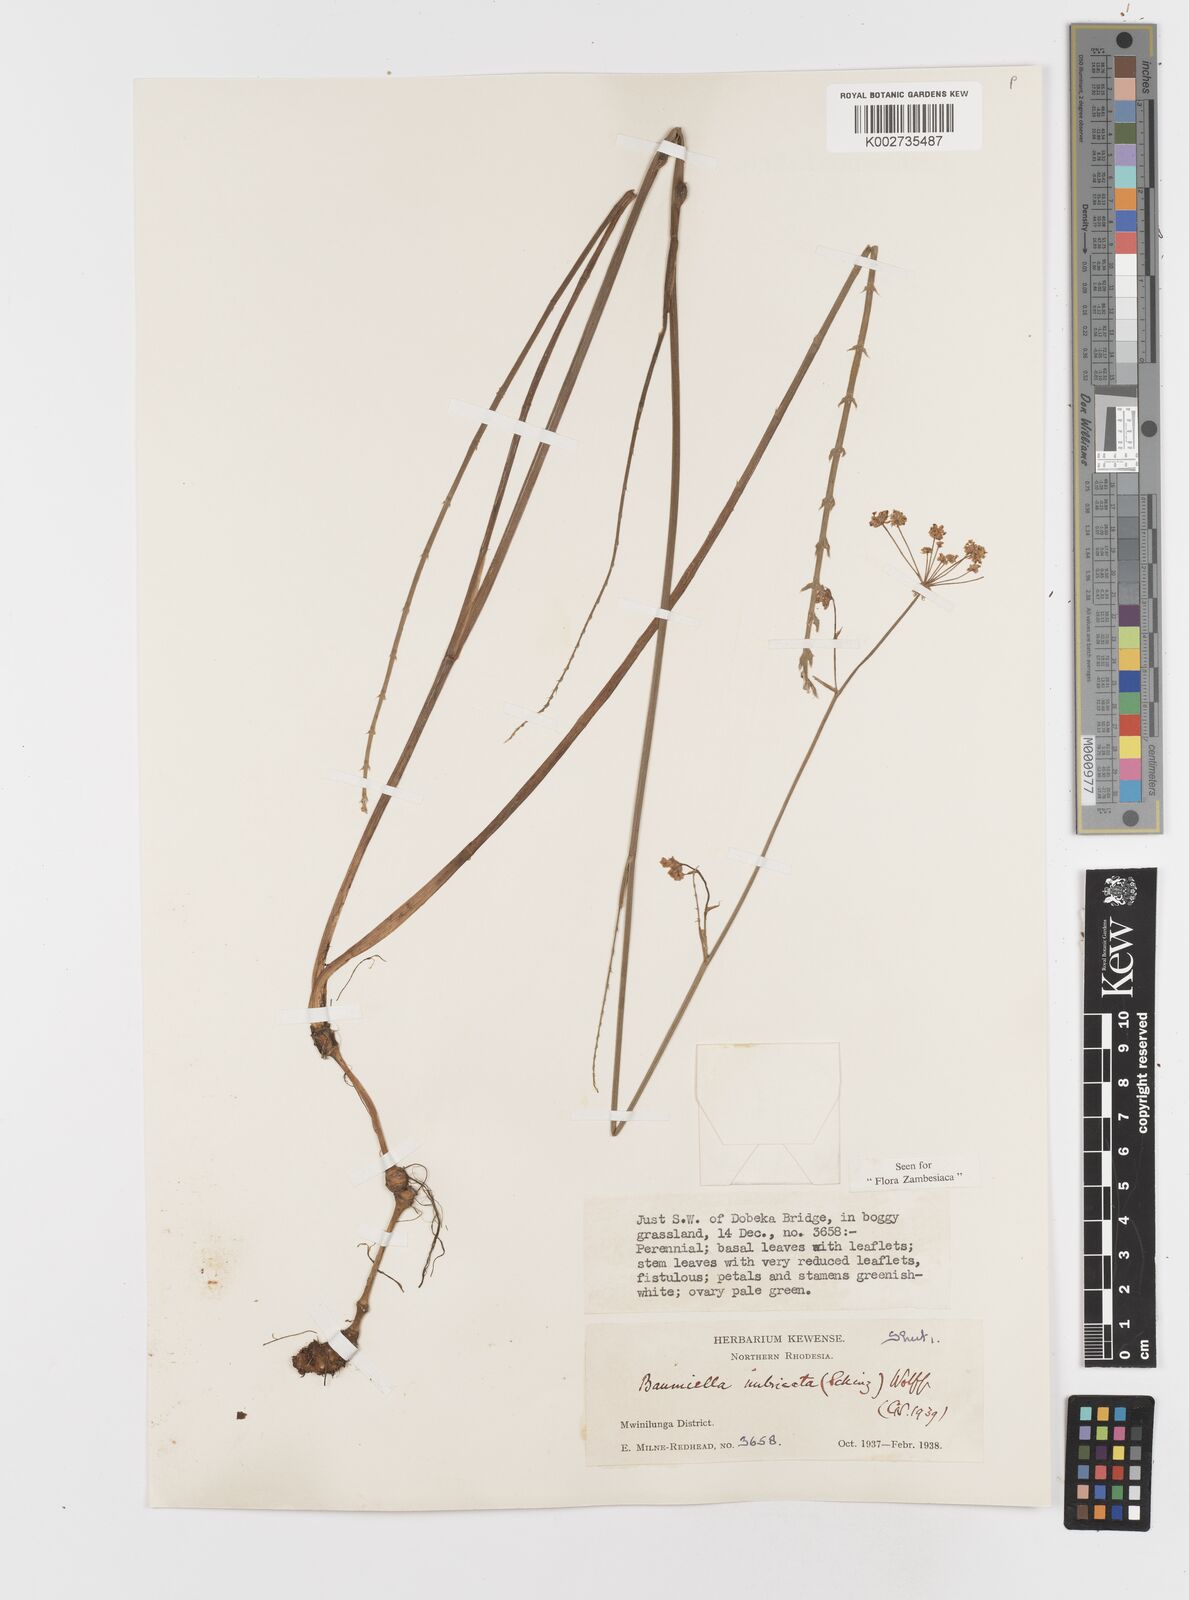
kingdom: Plantae
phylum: Tracheophyta
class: Magnoliopsida
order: Apiales
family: Apiaceae
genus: Berula
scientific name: Berula imbricata
